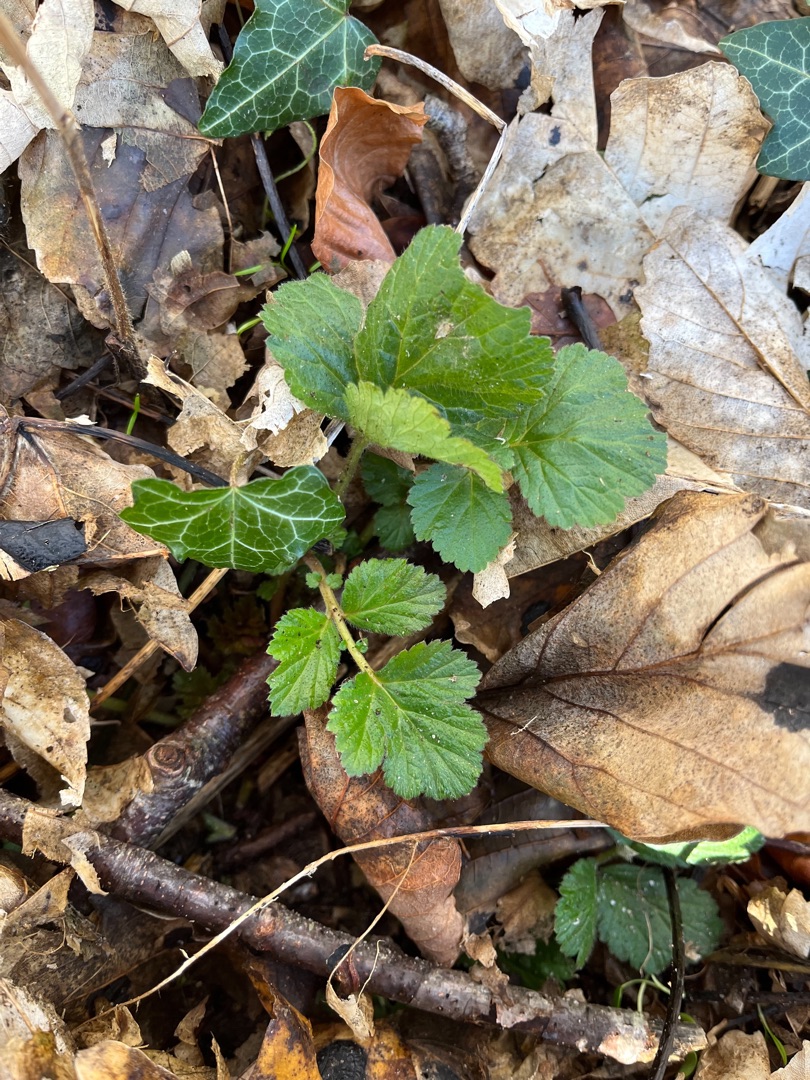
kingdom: Plantae
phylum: Tracheophyta
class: Magnoliopsida
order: Rosales
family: Rosaceae
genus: Geum
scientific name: Geum urbanum
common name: Feber-nellikerod
